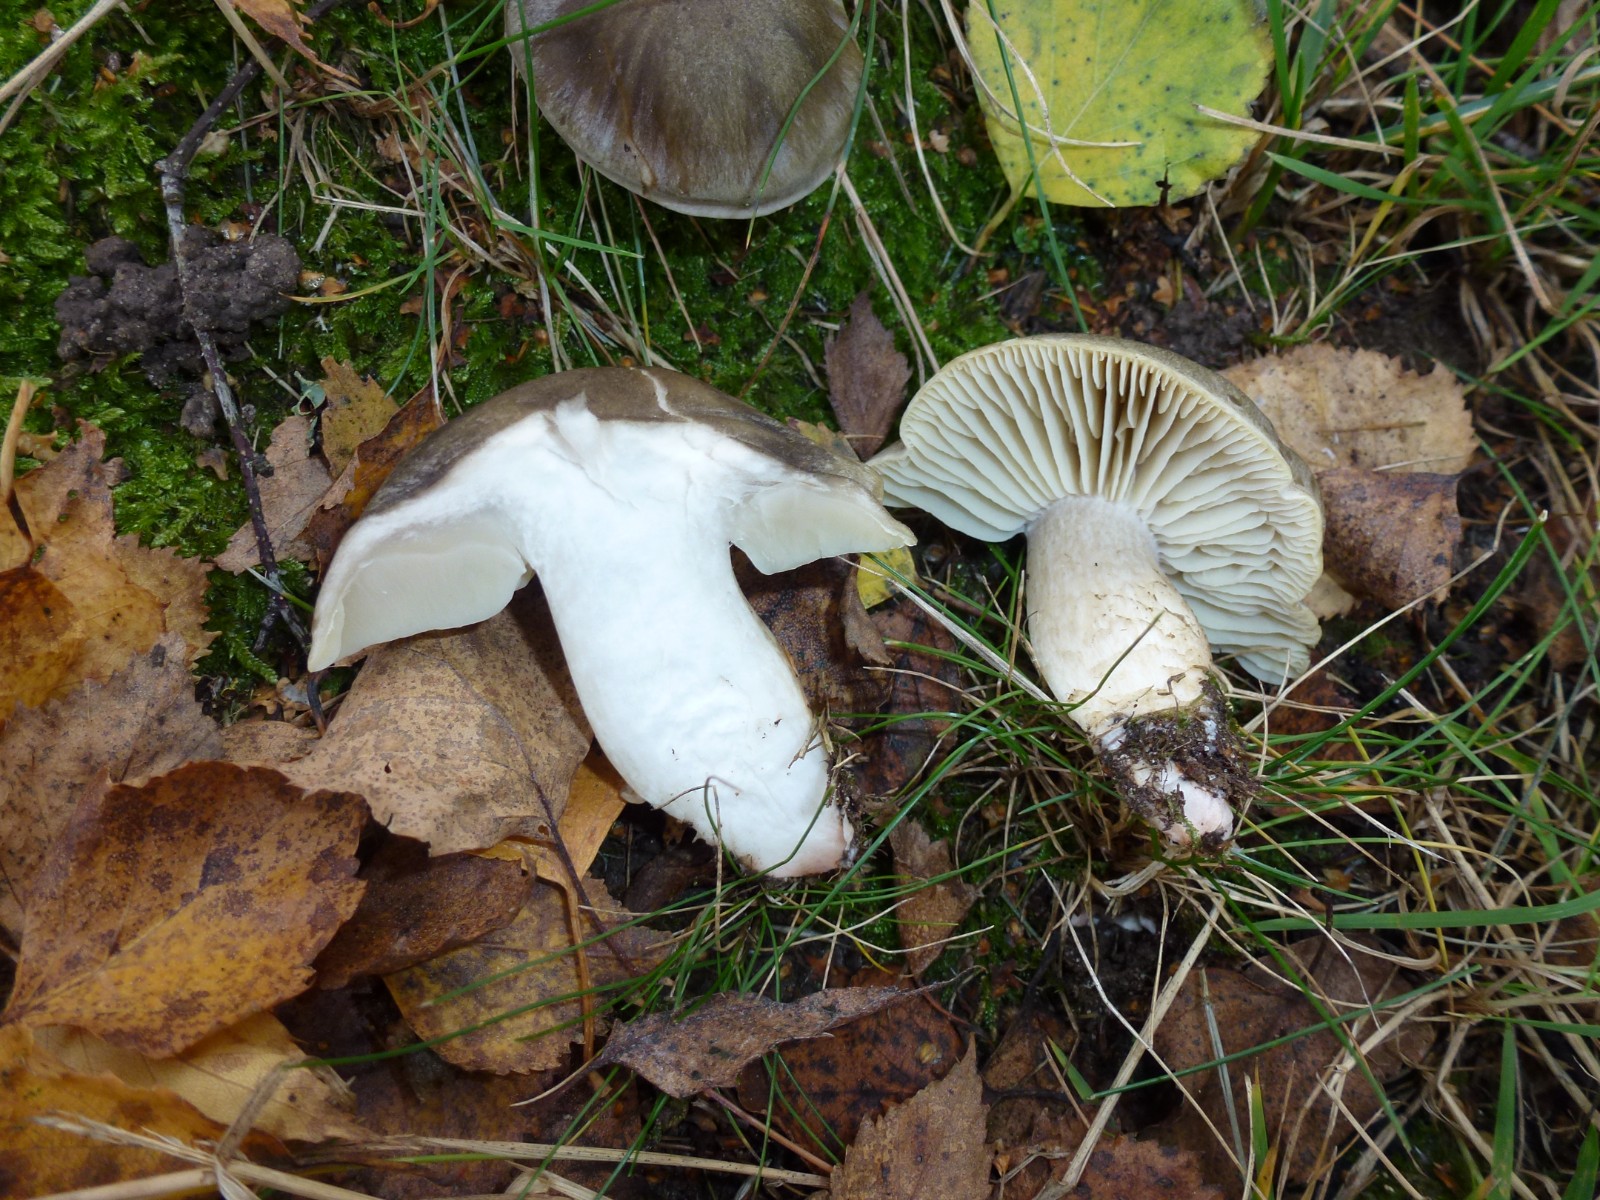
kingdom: Fungi
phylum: Basidiomycota
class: Agaricomycetes
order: Agaricales
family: Tricholomataceae
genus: Tricholoma
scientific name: Tricholoma saponaceum
